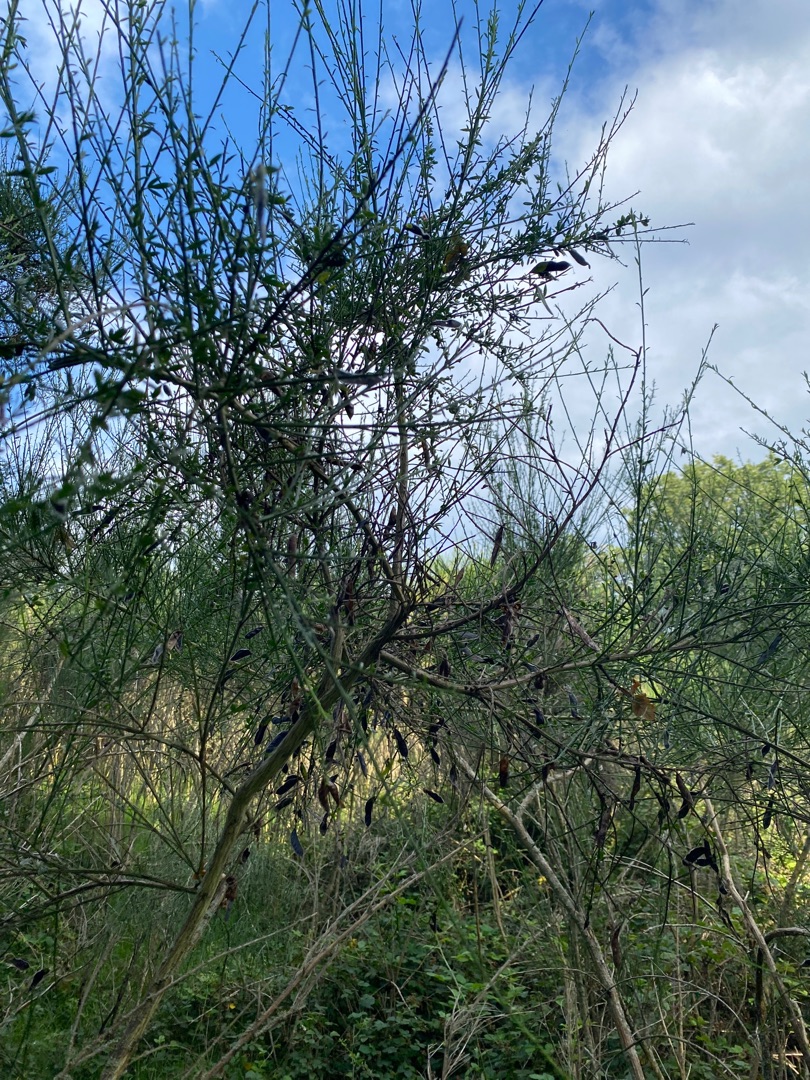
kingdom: Plantae
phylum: Tracheophyta
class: Magnoliopsida
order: Fabales
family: Fabaceae
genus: Cytisus
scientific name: Cytisus scoparius
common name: Almindelig gyvel
